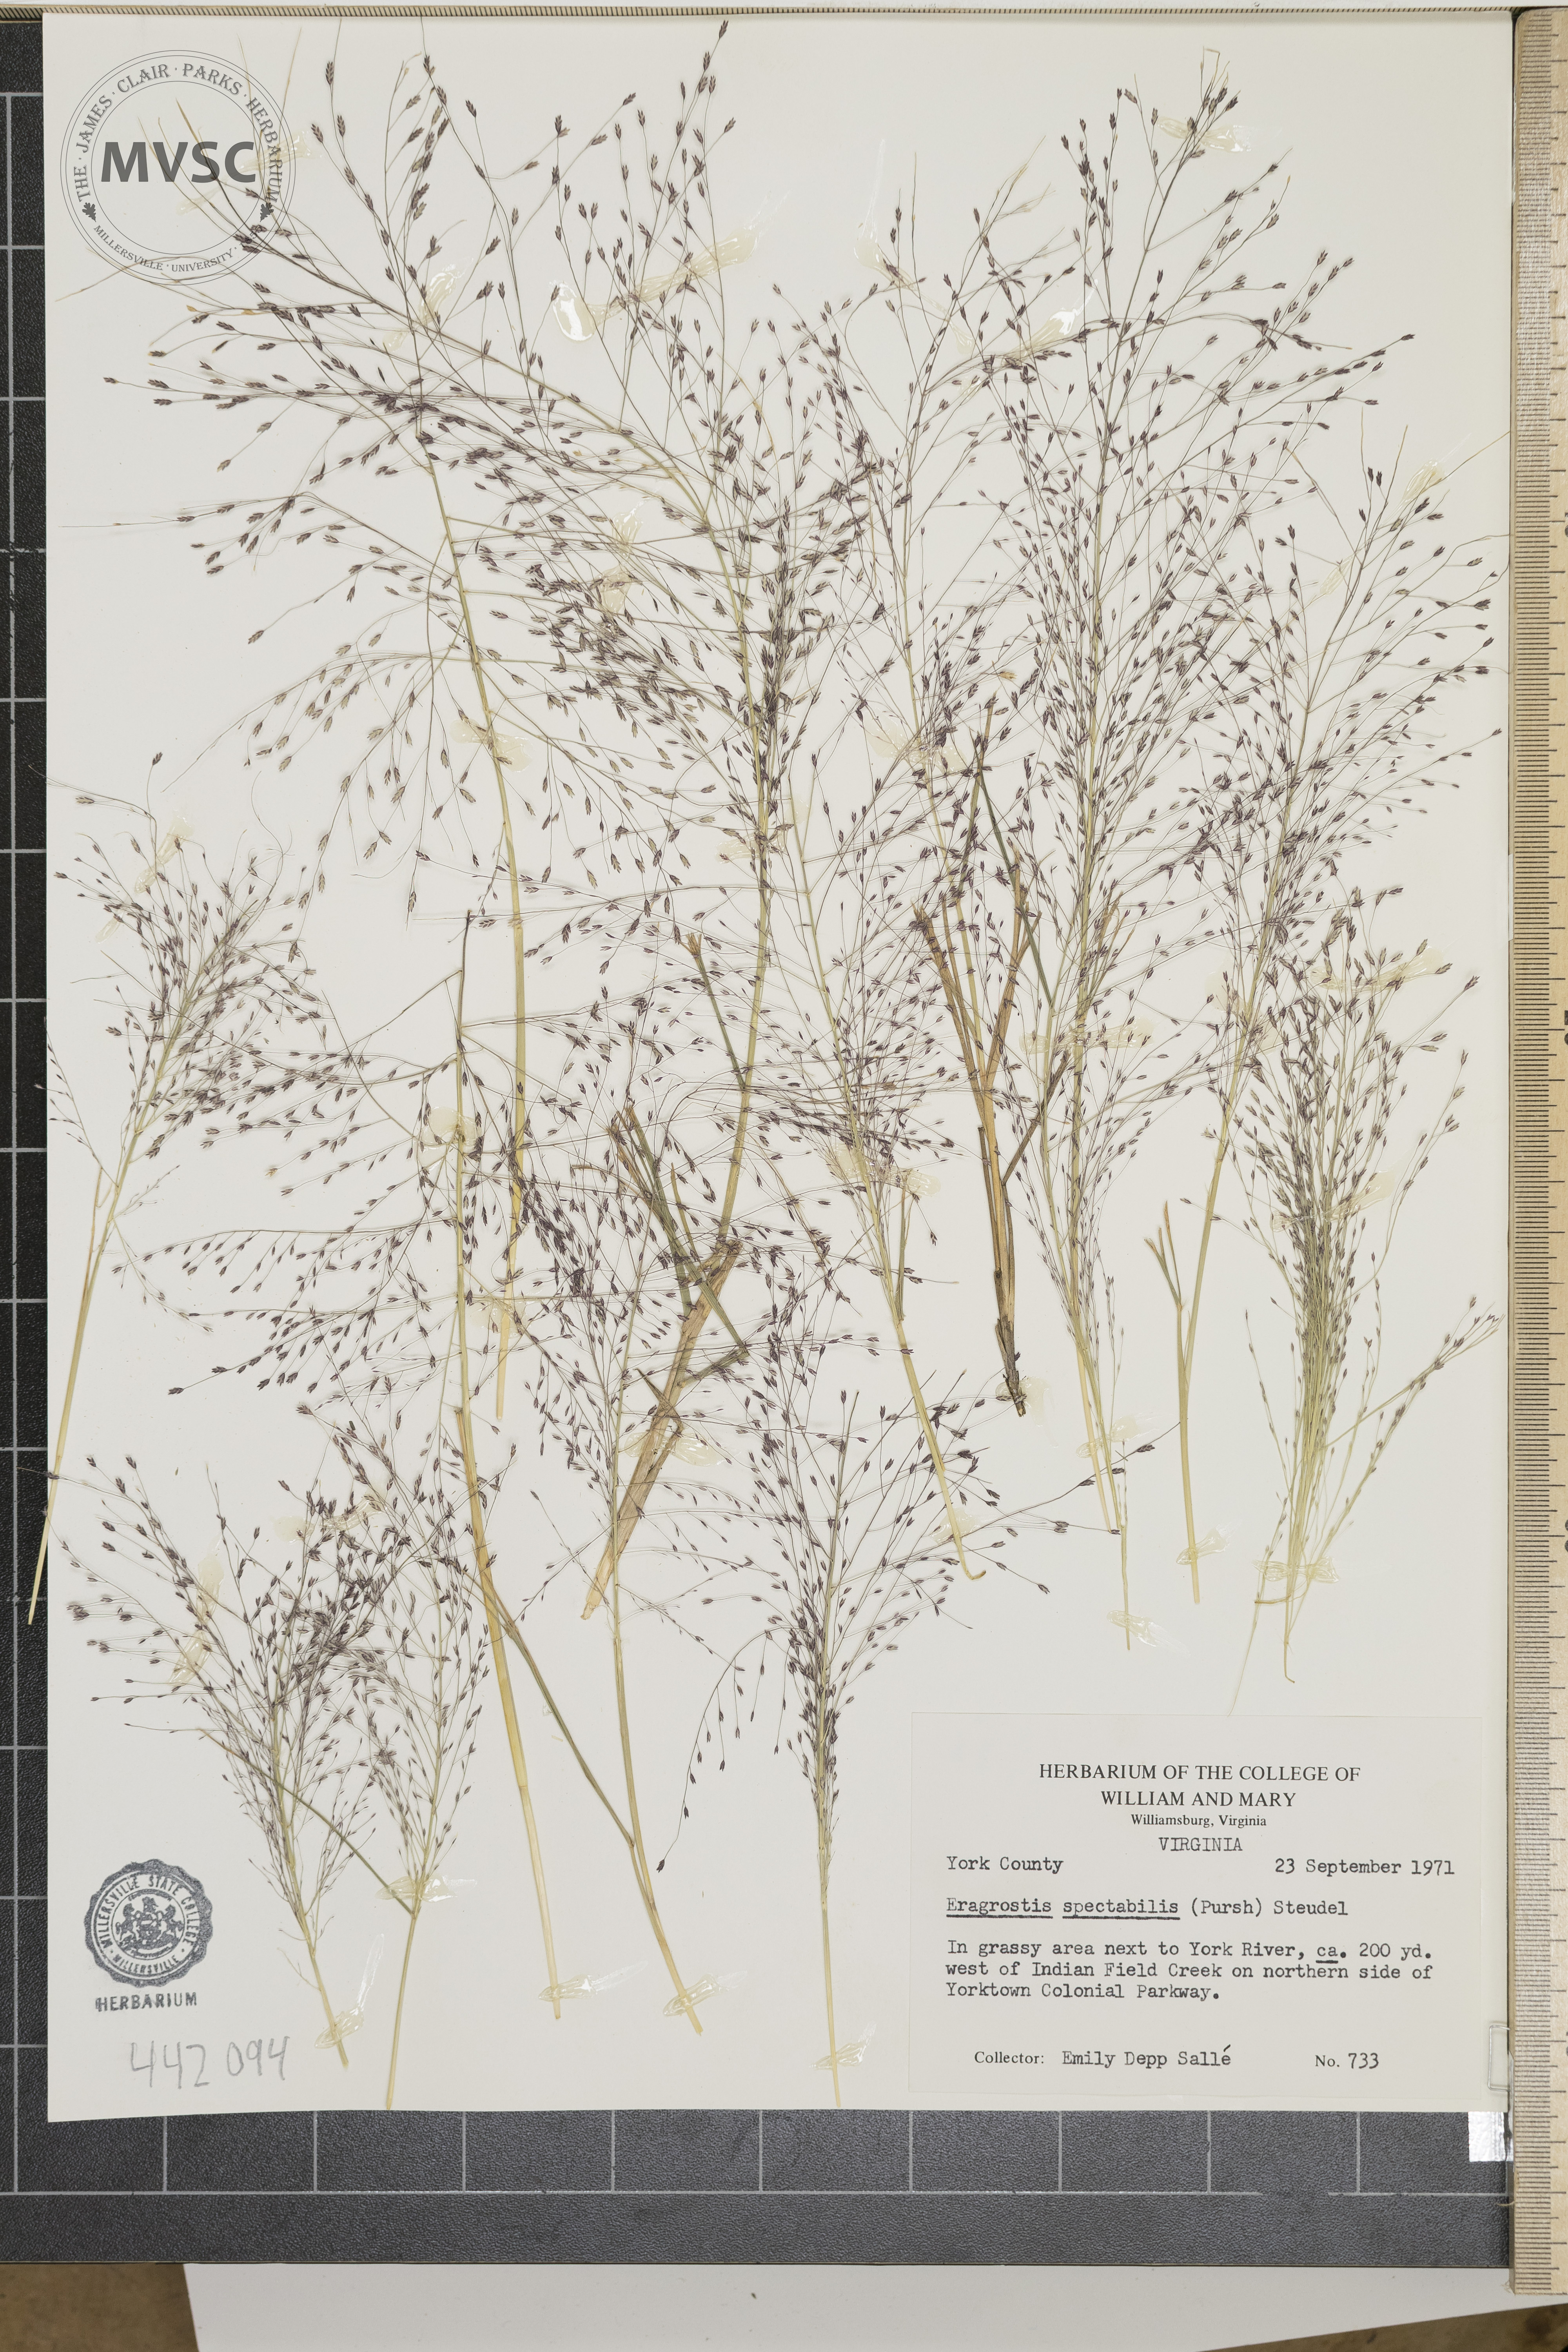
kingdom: Plantae
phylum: Tracheophyta
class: Liliopsida
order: Poales
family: Poaceae
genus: Eragrostis
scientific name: Eragrostis spectabilis
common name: Petticoat-climber
